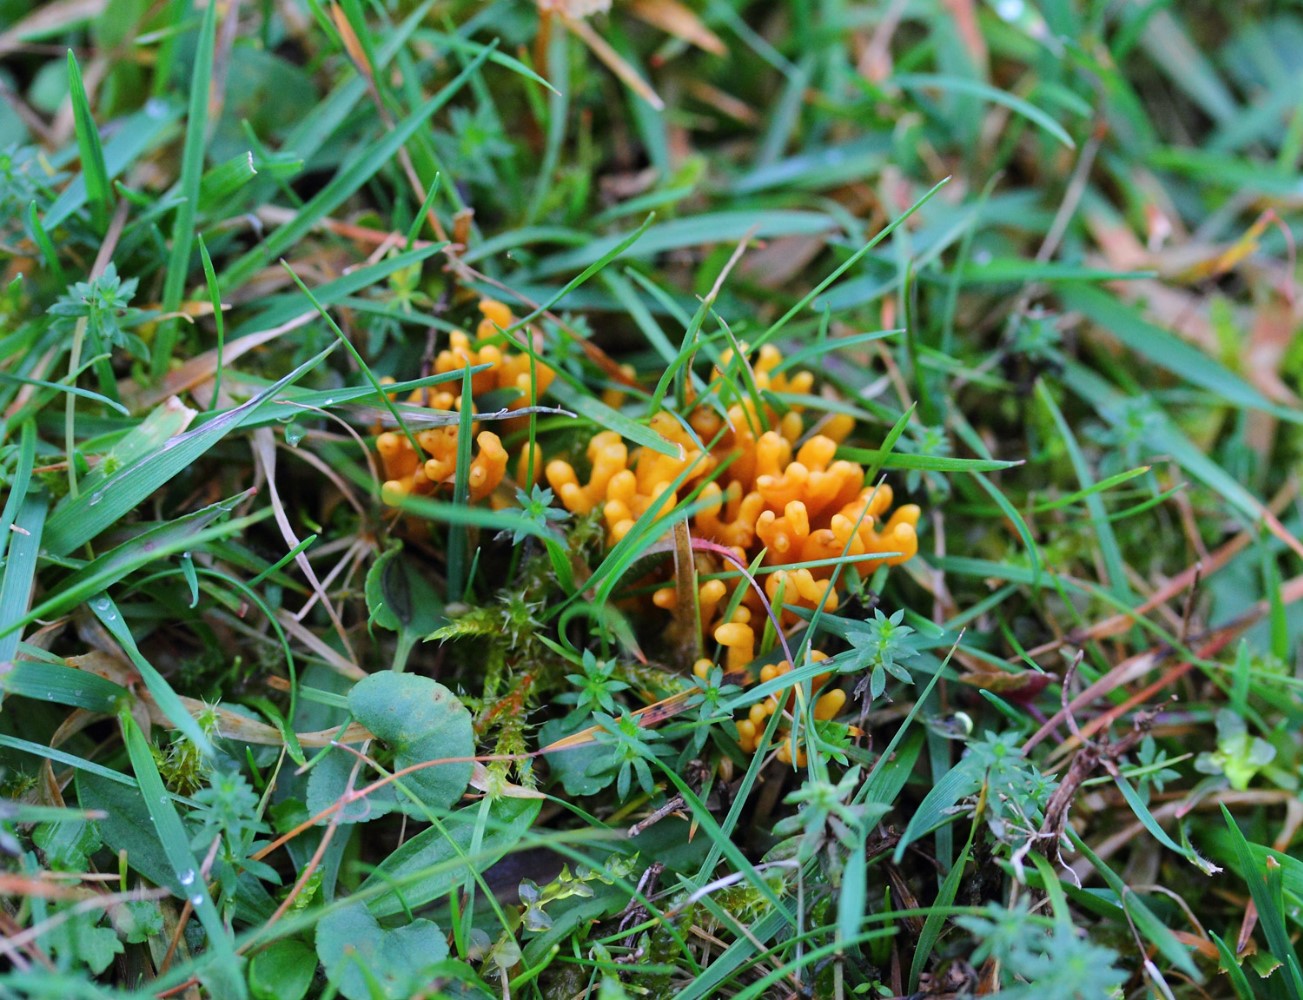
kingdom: Fungi
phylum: Basidiomycota
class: Agaricomycetes
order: Agaricales
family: Clavariaceae
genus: Clavulinopsis
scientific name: Clavulinopsis corniculata
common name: eng-køllesvamp
